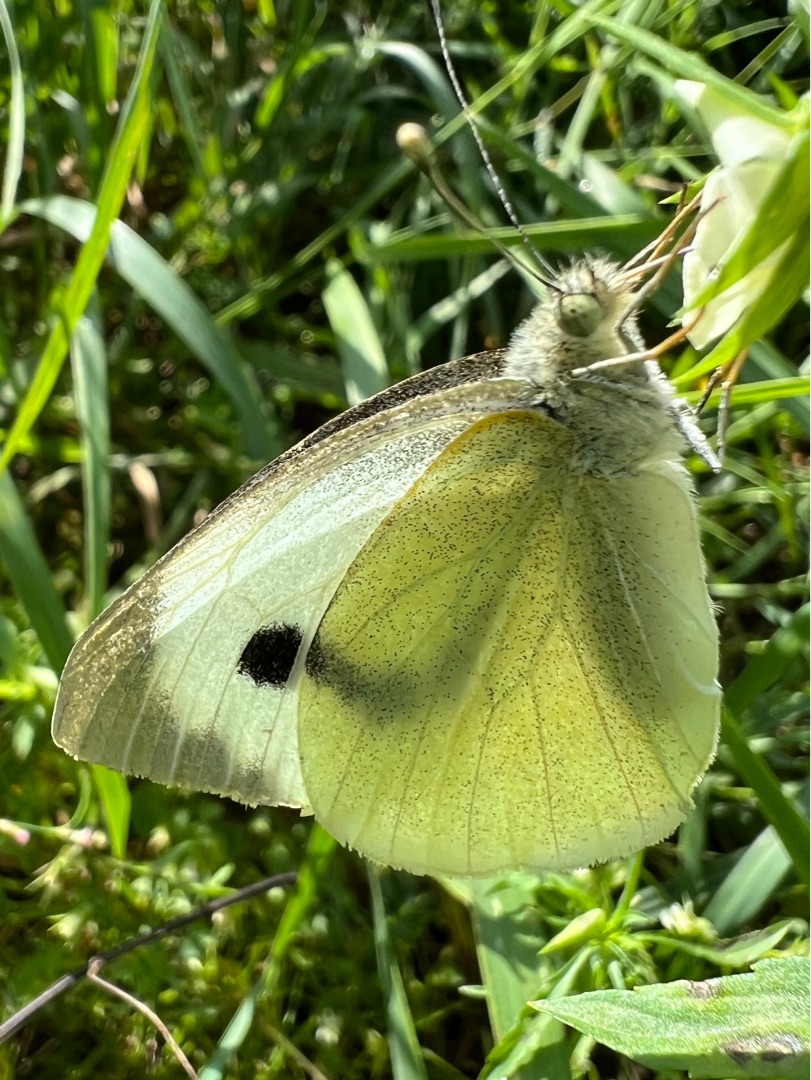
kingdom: Animalia
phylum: Arthropoda
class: Insecta
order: Lepidoptera
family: Pieridae
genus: Pieris
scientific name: Pieris brassicae
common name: Stor kålsommerfugl
